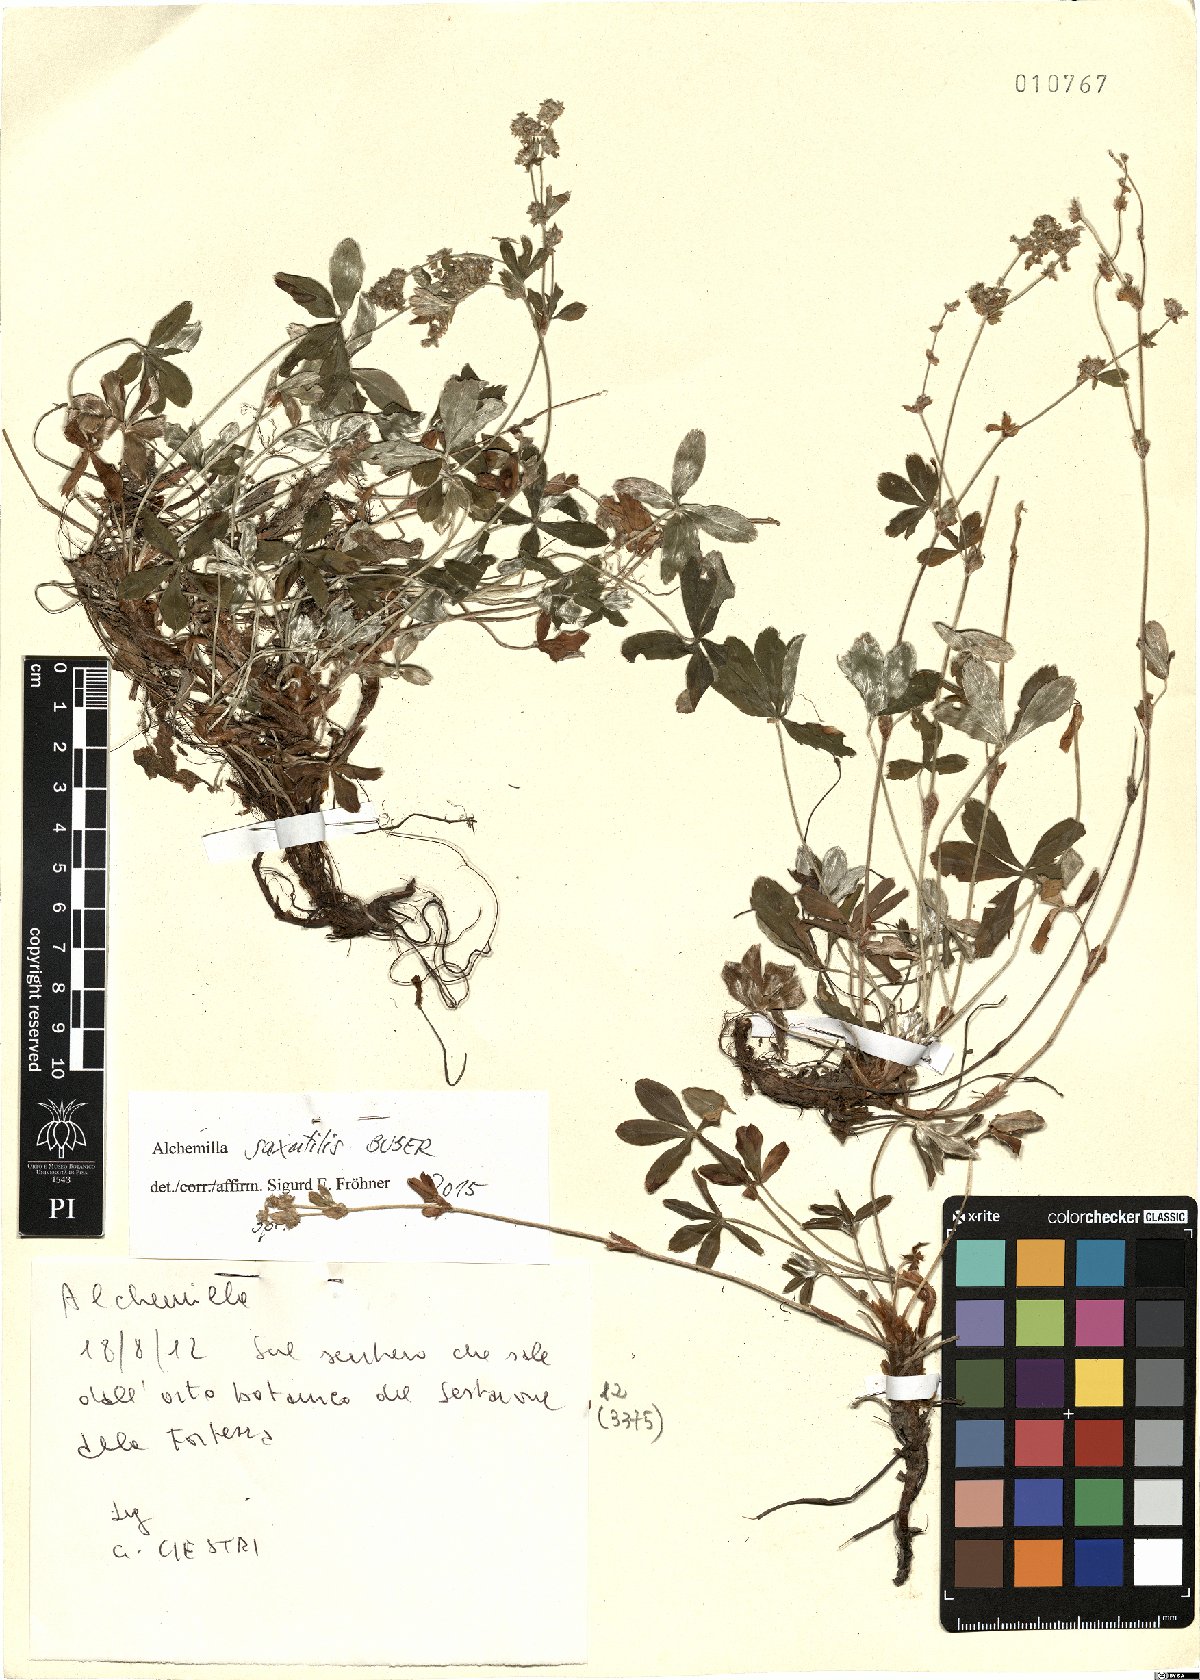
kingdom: Plantae
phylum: Tracheophyta
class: Magnoliopsida
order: Rosales
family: Rosaceae
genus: Alchemilla
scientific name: Alchemilla saxatilis
